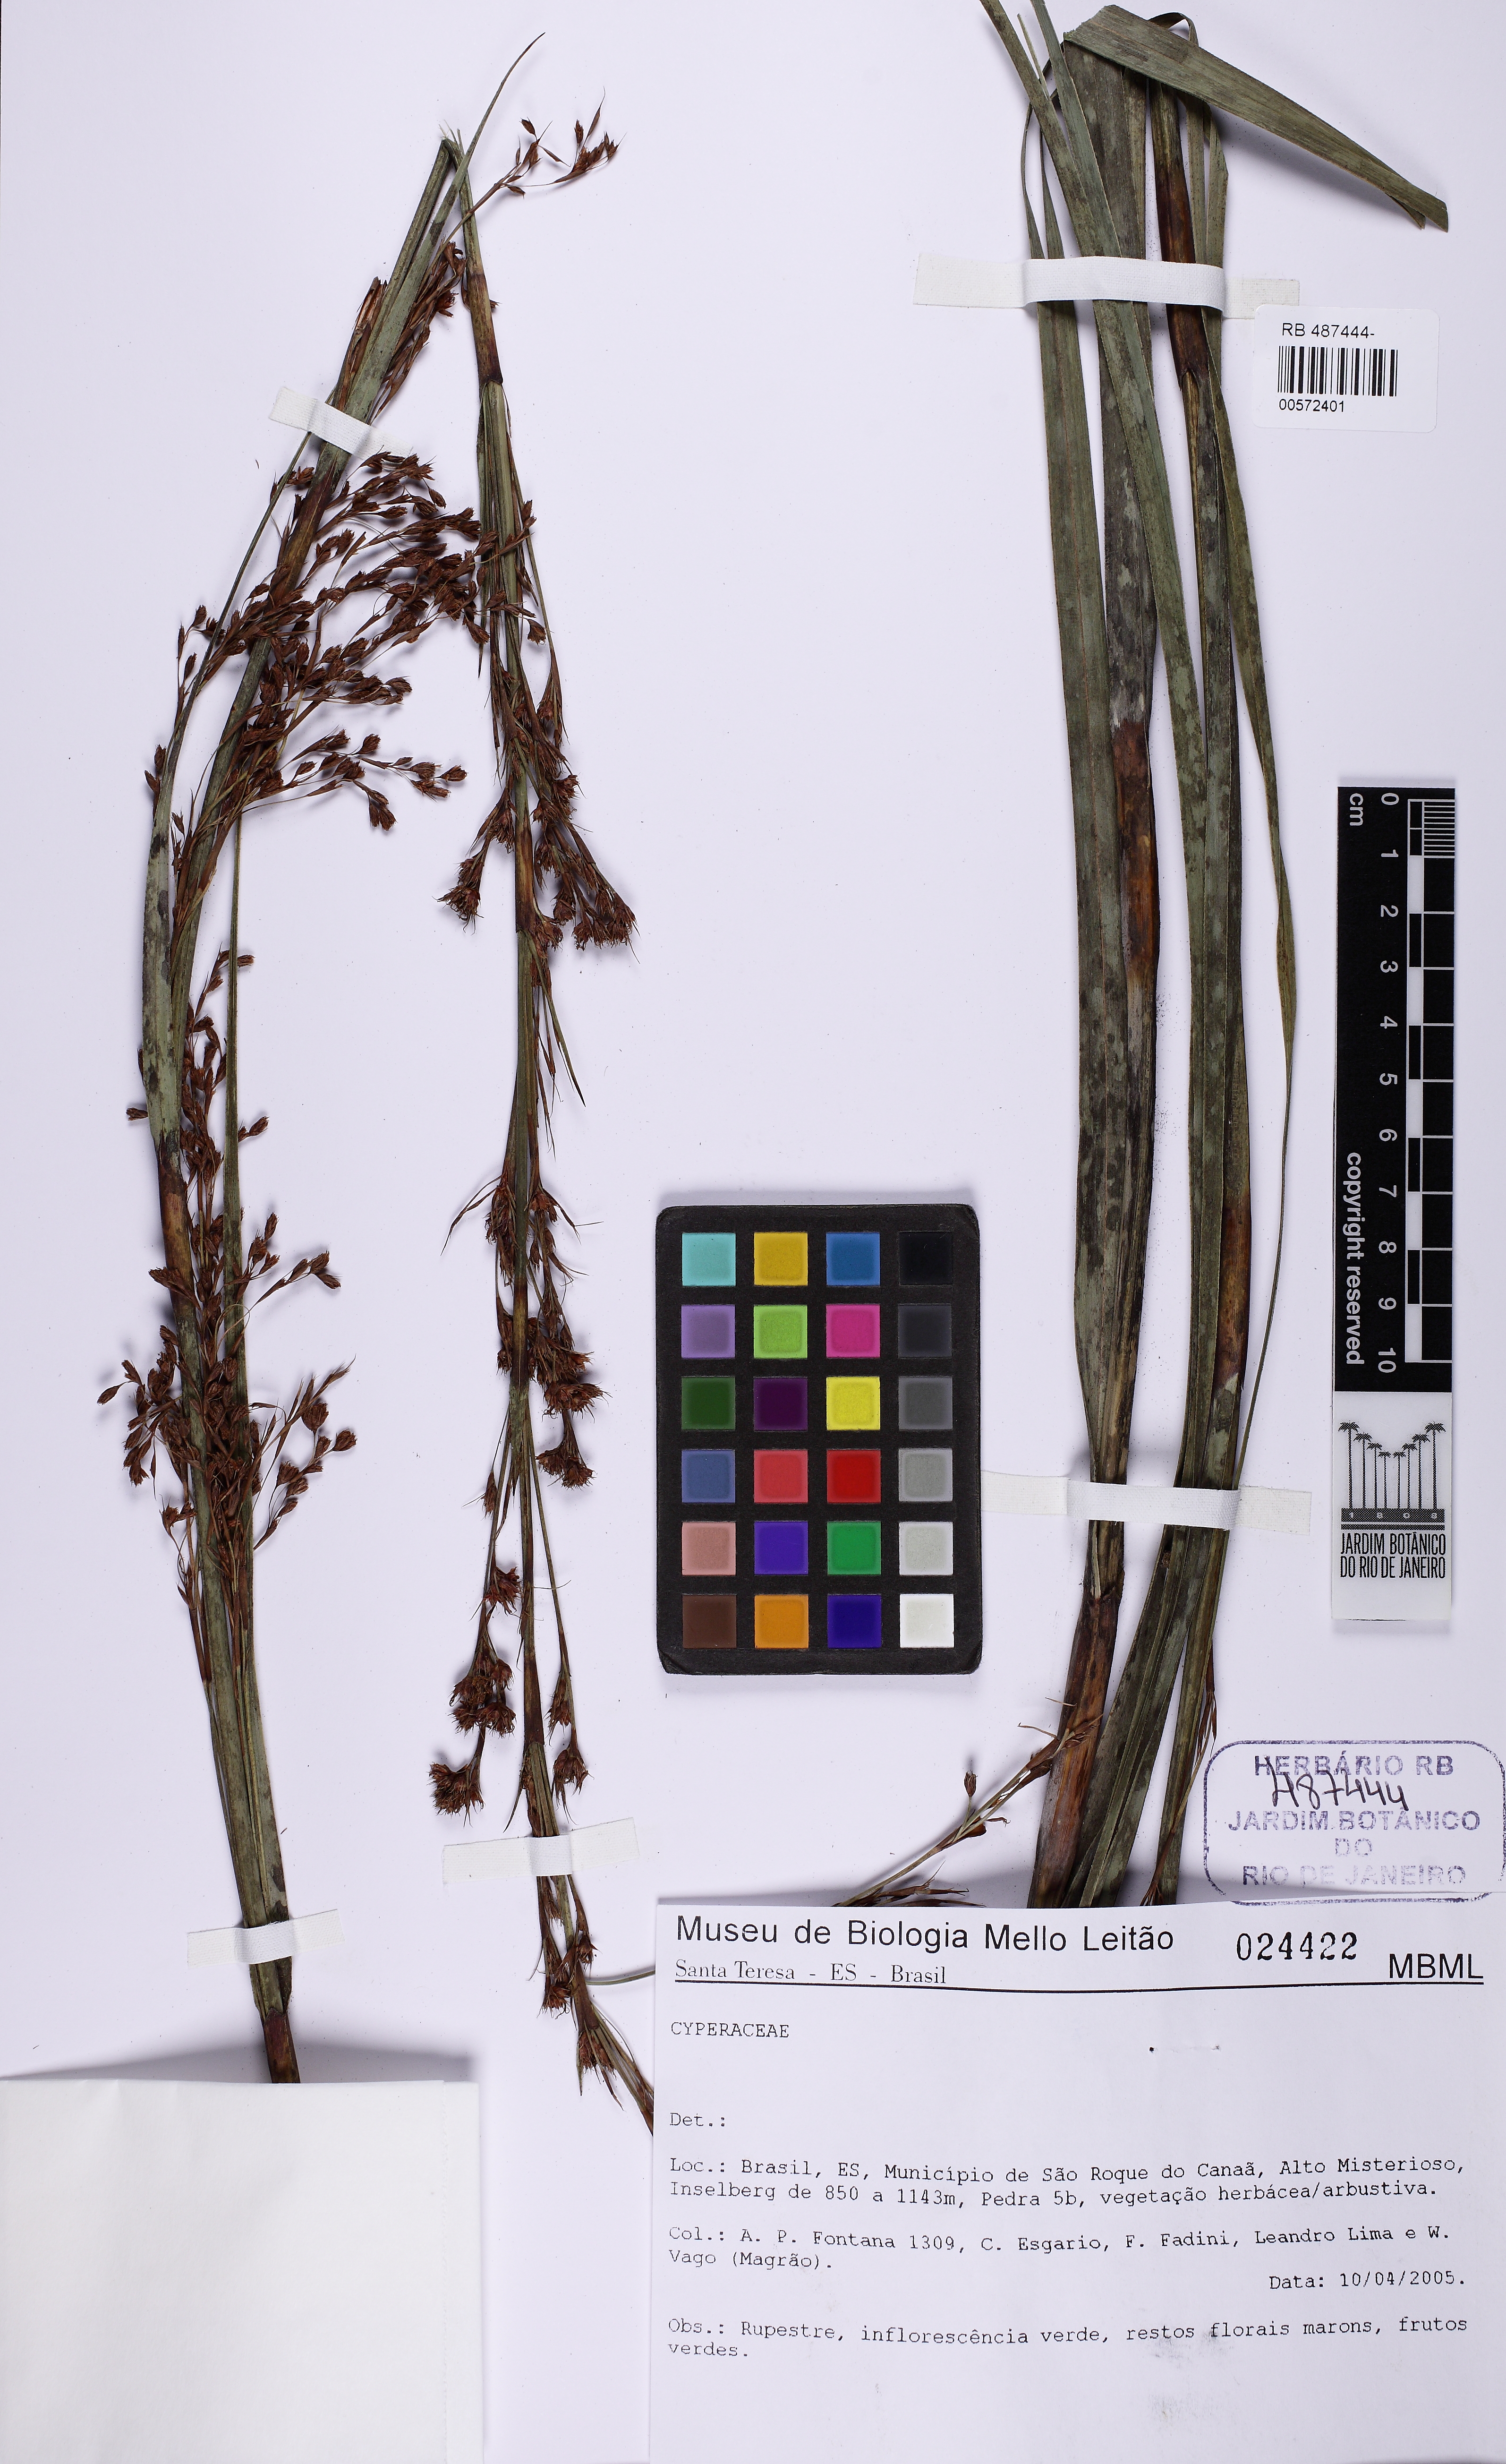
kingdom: Plantae
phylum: Tracheophyta
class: Liliopsida
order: Poales
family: Cyperaceae
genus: Lagenocarpus
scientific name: Lagenocarpus
